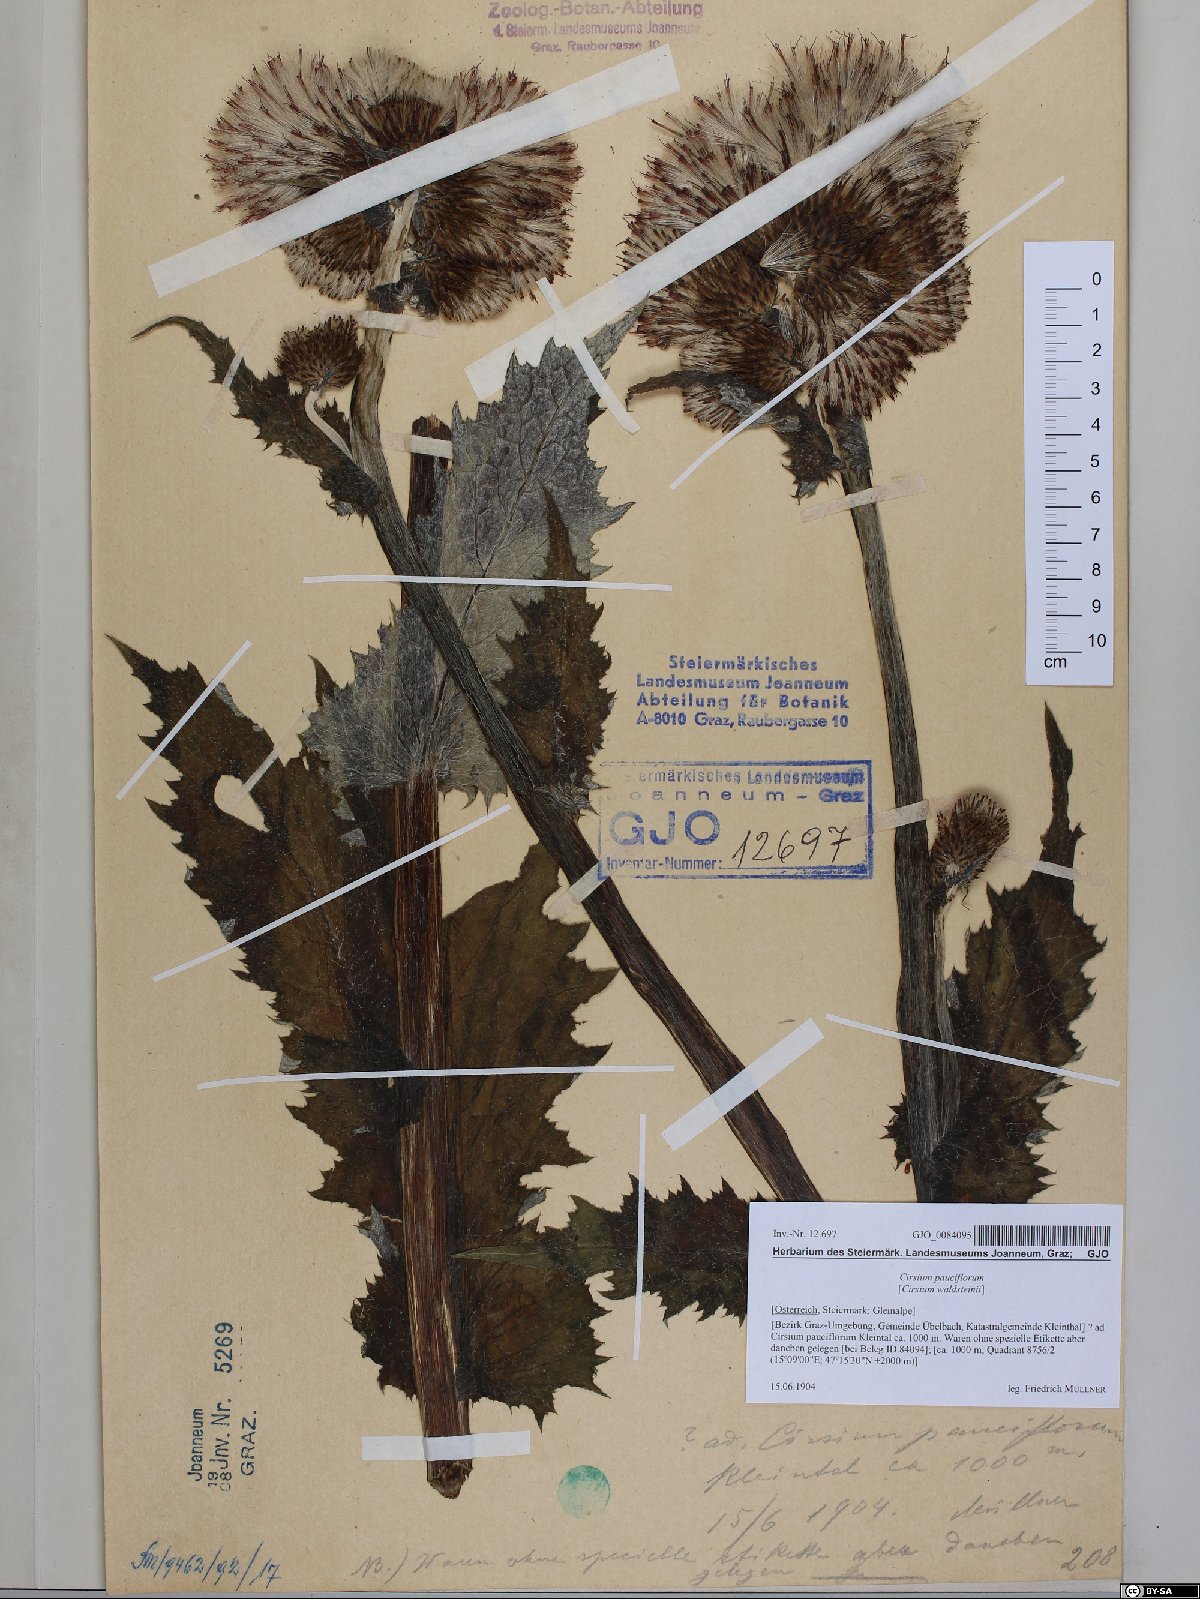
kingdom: Plantae
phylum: Tracheophyta
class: Magnoliopsida
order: Asterales
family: Asteraceae
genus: Cirsium
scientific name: Cirsium greimleri
